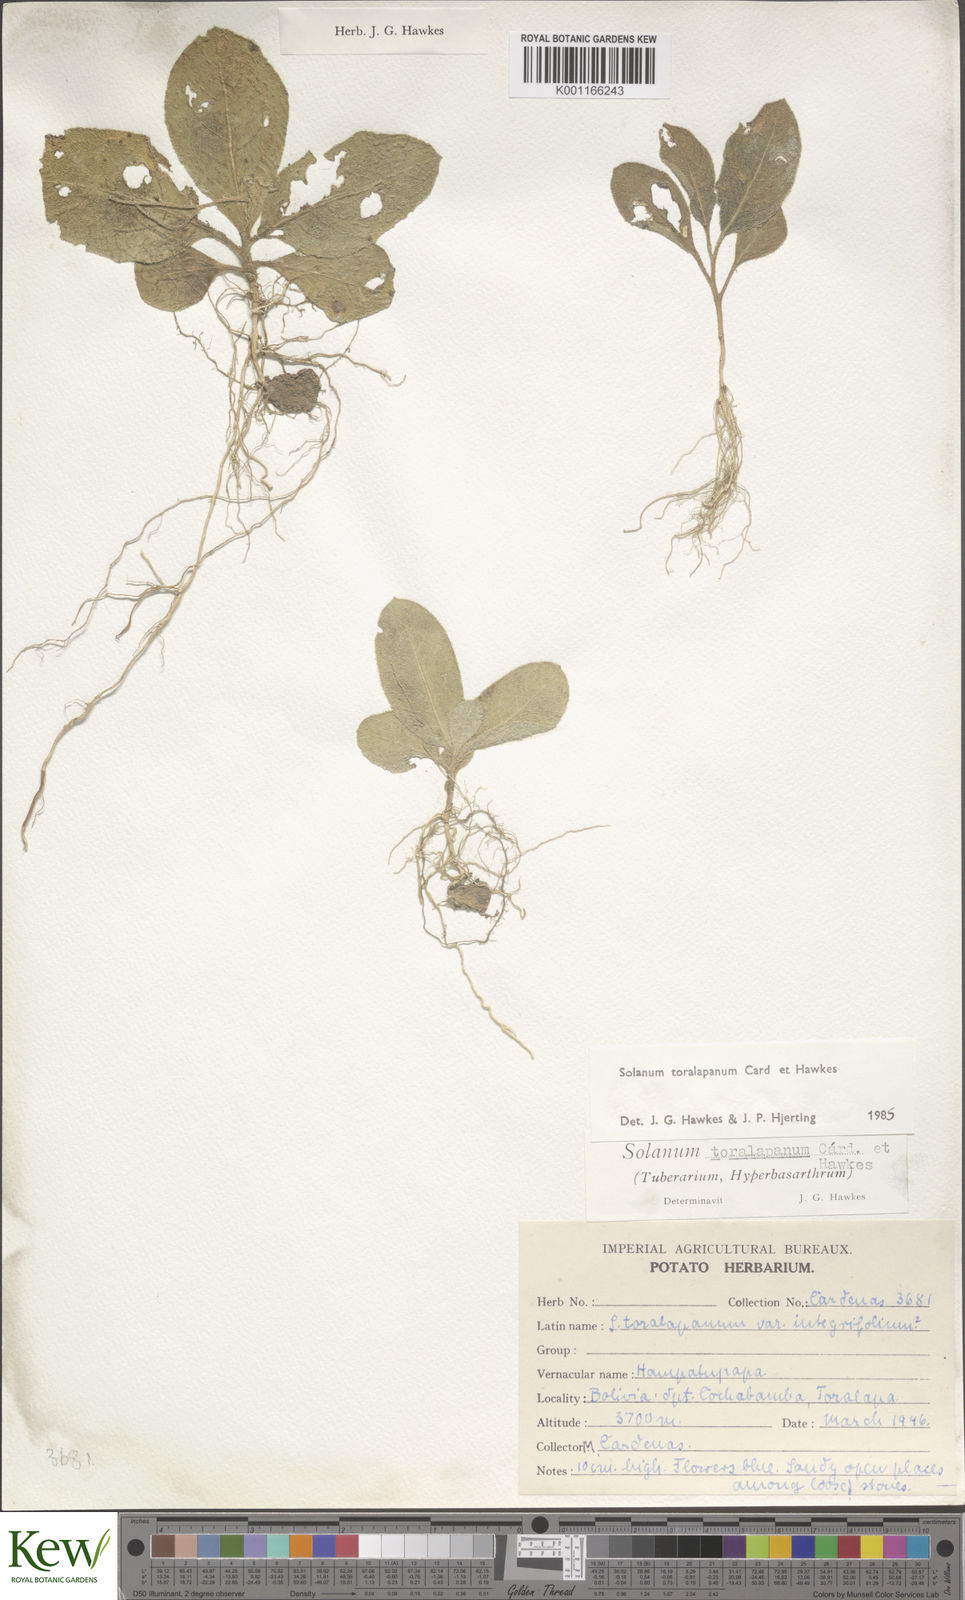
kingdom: Plantae
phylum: Tracheophyta
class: Magnoliopsida
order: Solanales
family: Solanaceae
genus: Solanum
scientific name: Solanum
